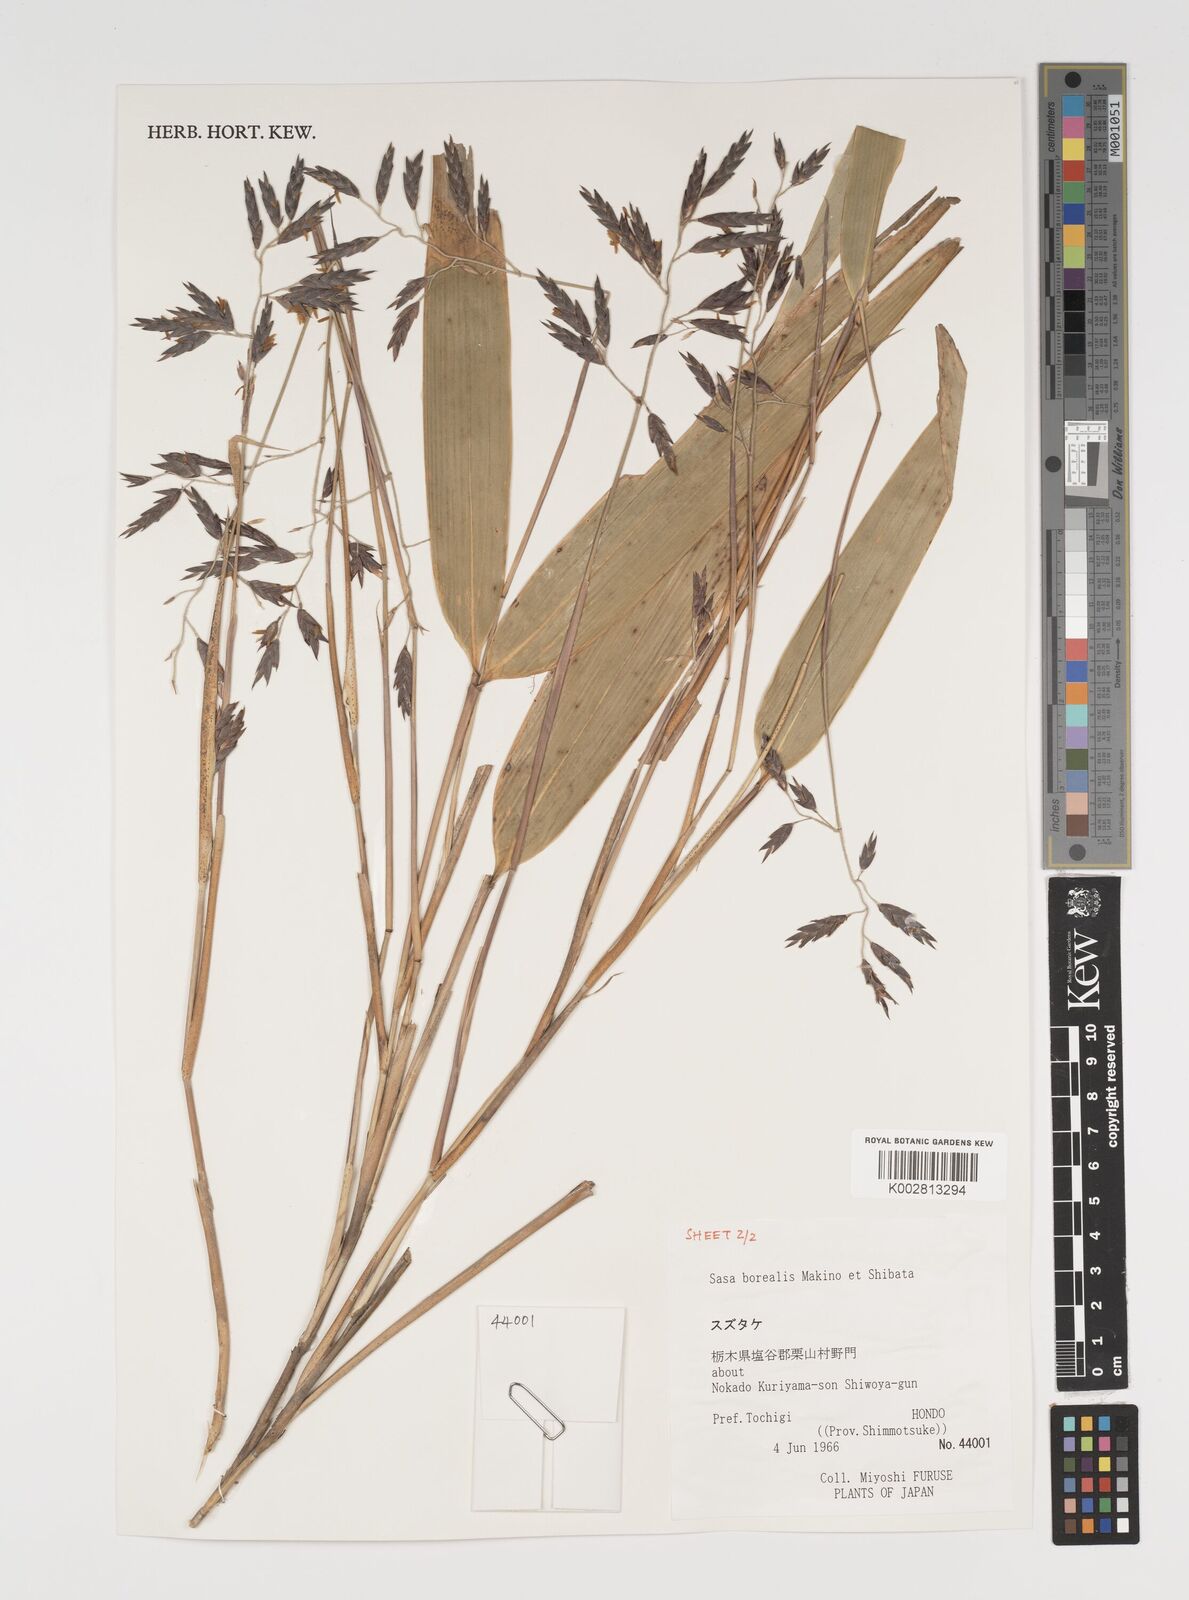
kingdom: Plantae
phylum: Tracheophyta
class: Liliopsida
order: Poales
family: Poaceae
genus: Sasamorpha
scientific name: Sasamorpha borealis
